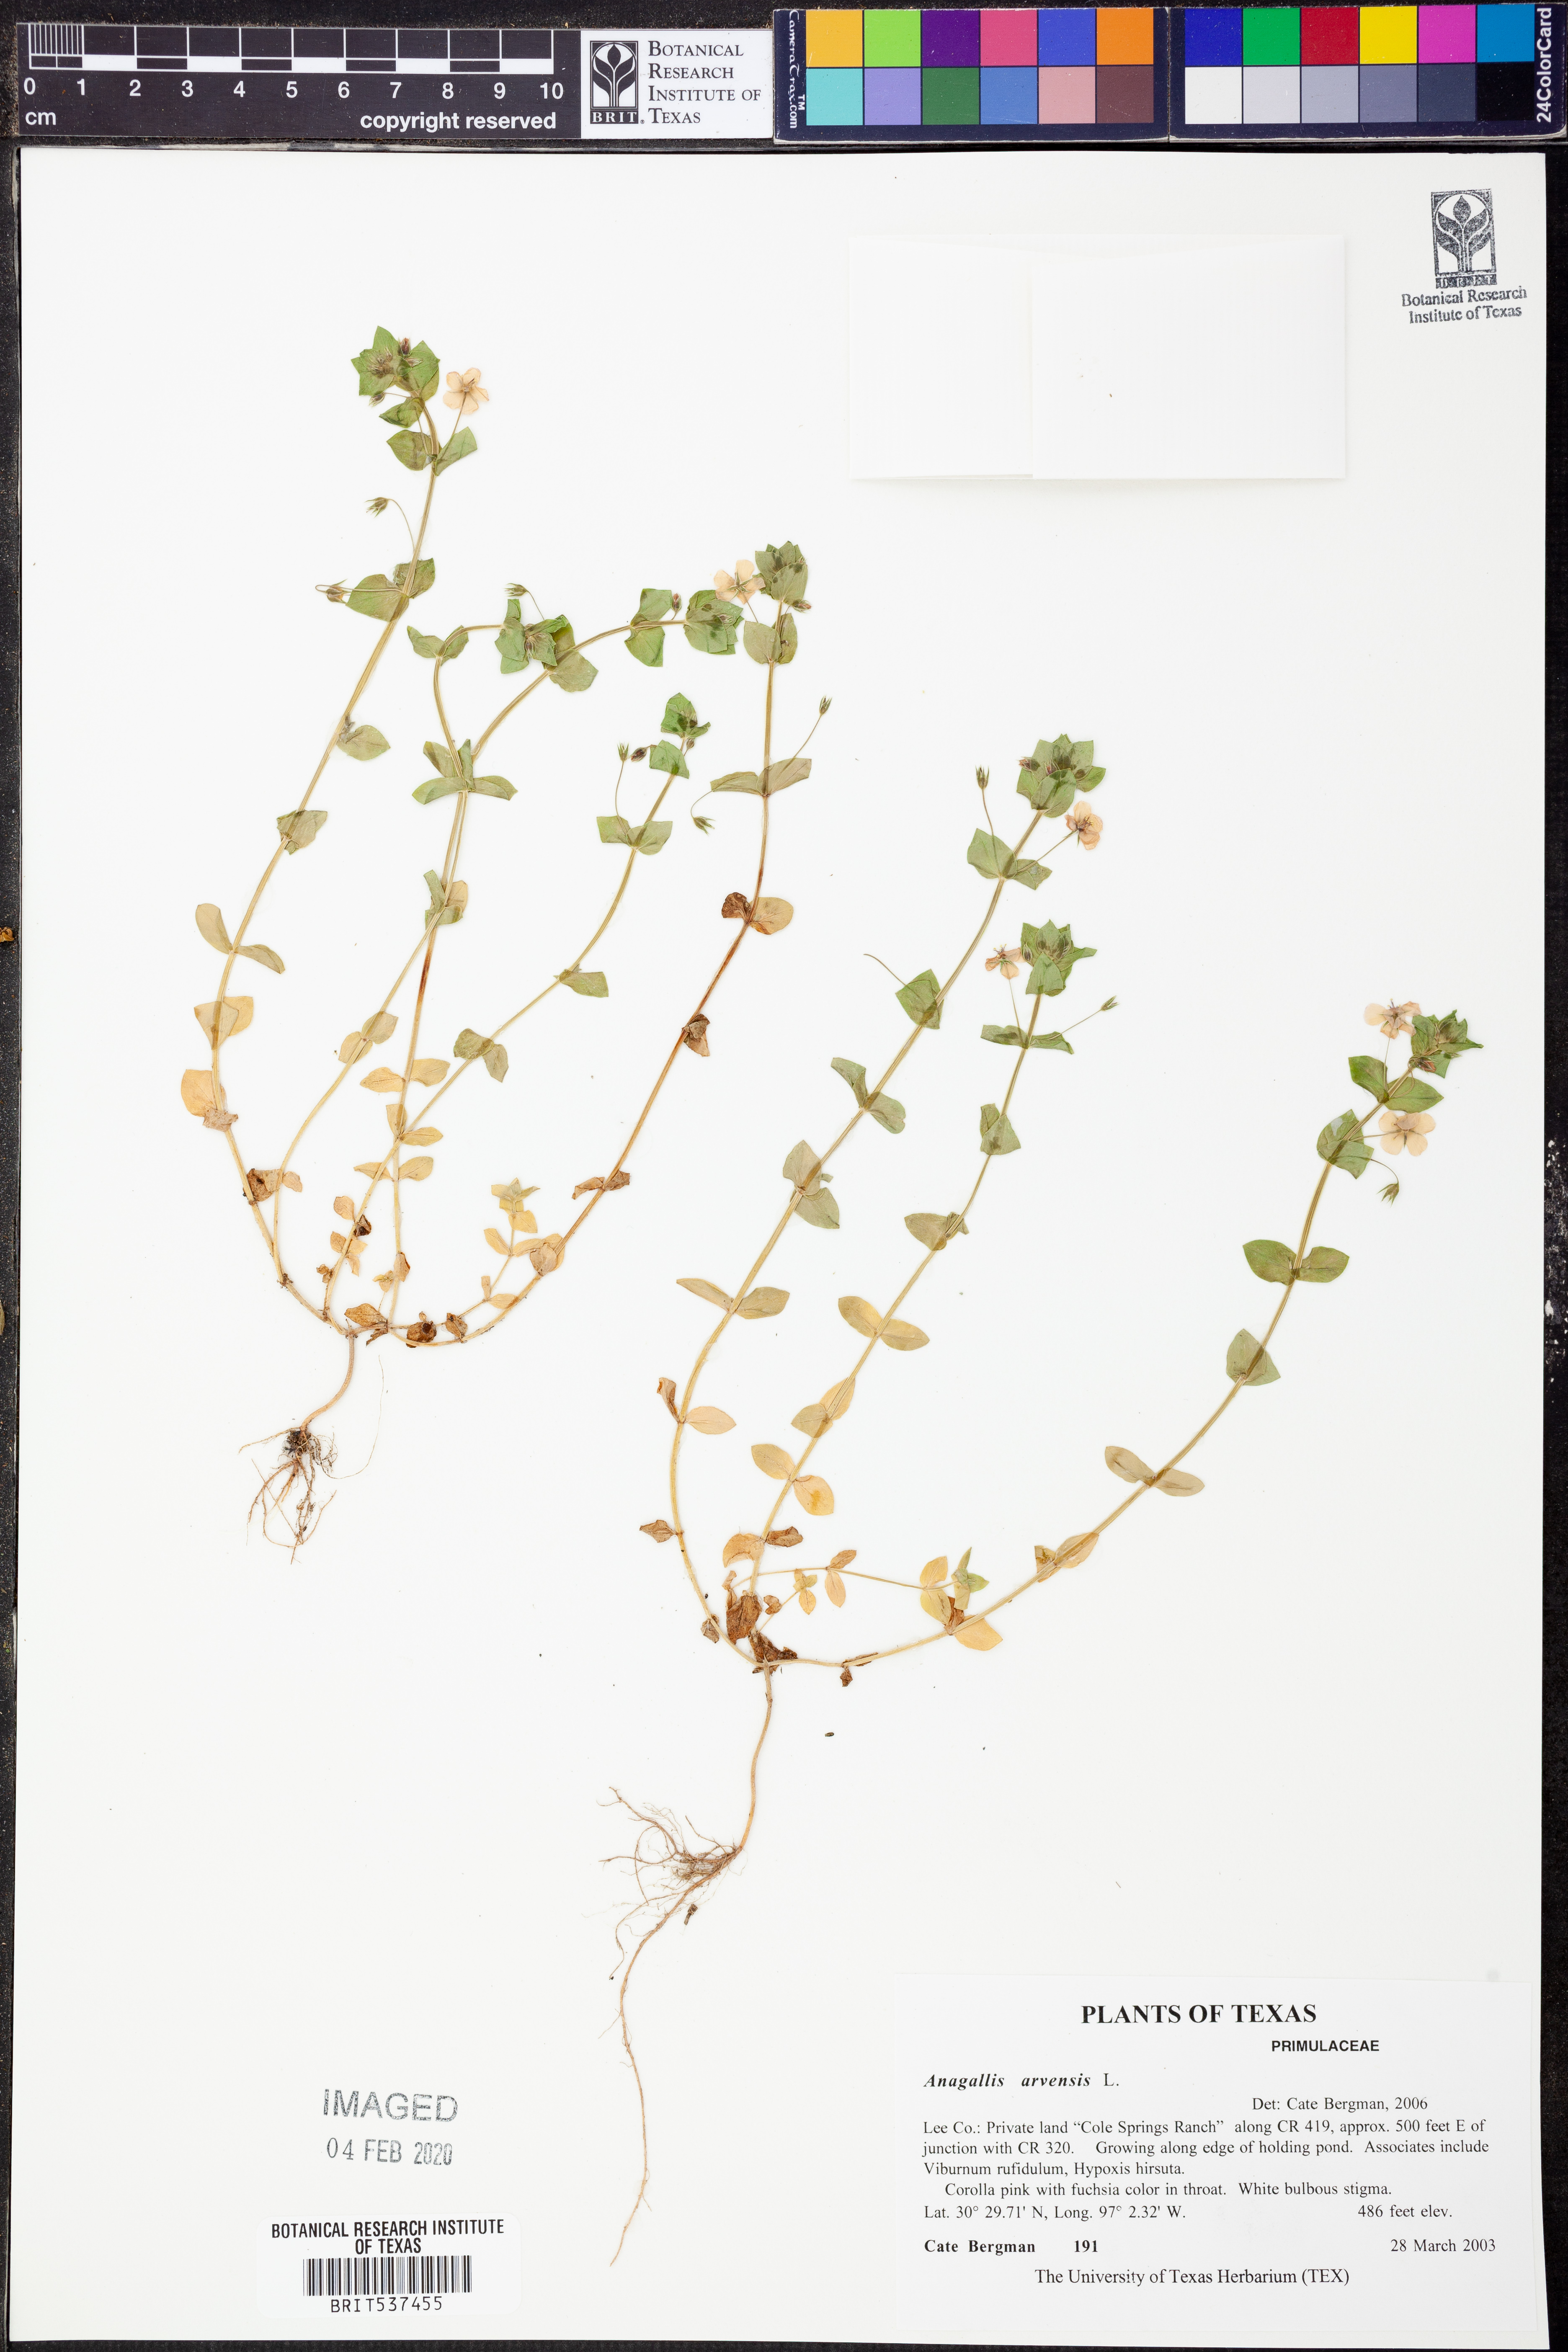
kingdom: Plantae
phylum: Tracheophyta
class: Magnoliopsida
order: Ericales
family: Primulaceae
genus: Lysimachia
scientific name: Lysimachia arvensis
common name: Scarlet pimpernel
